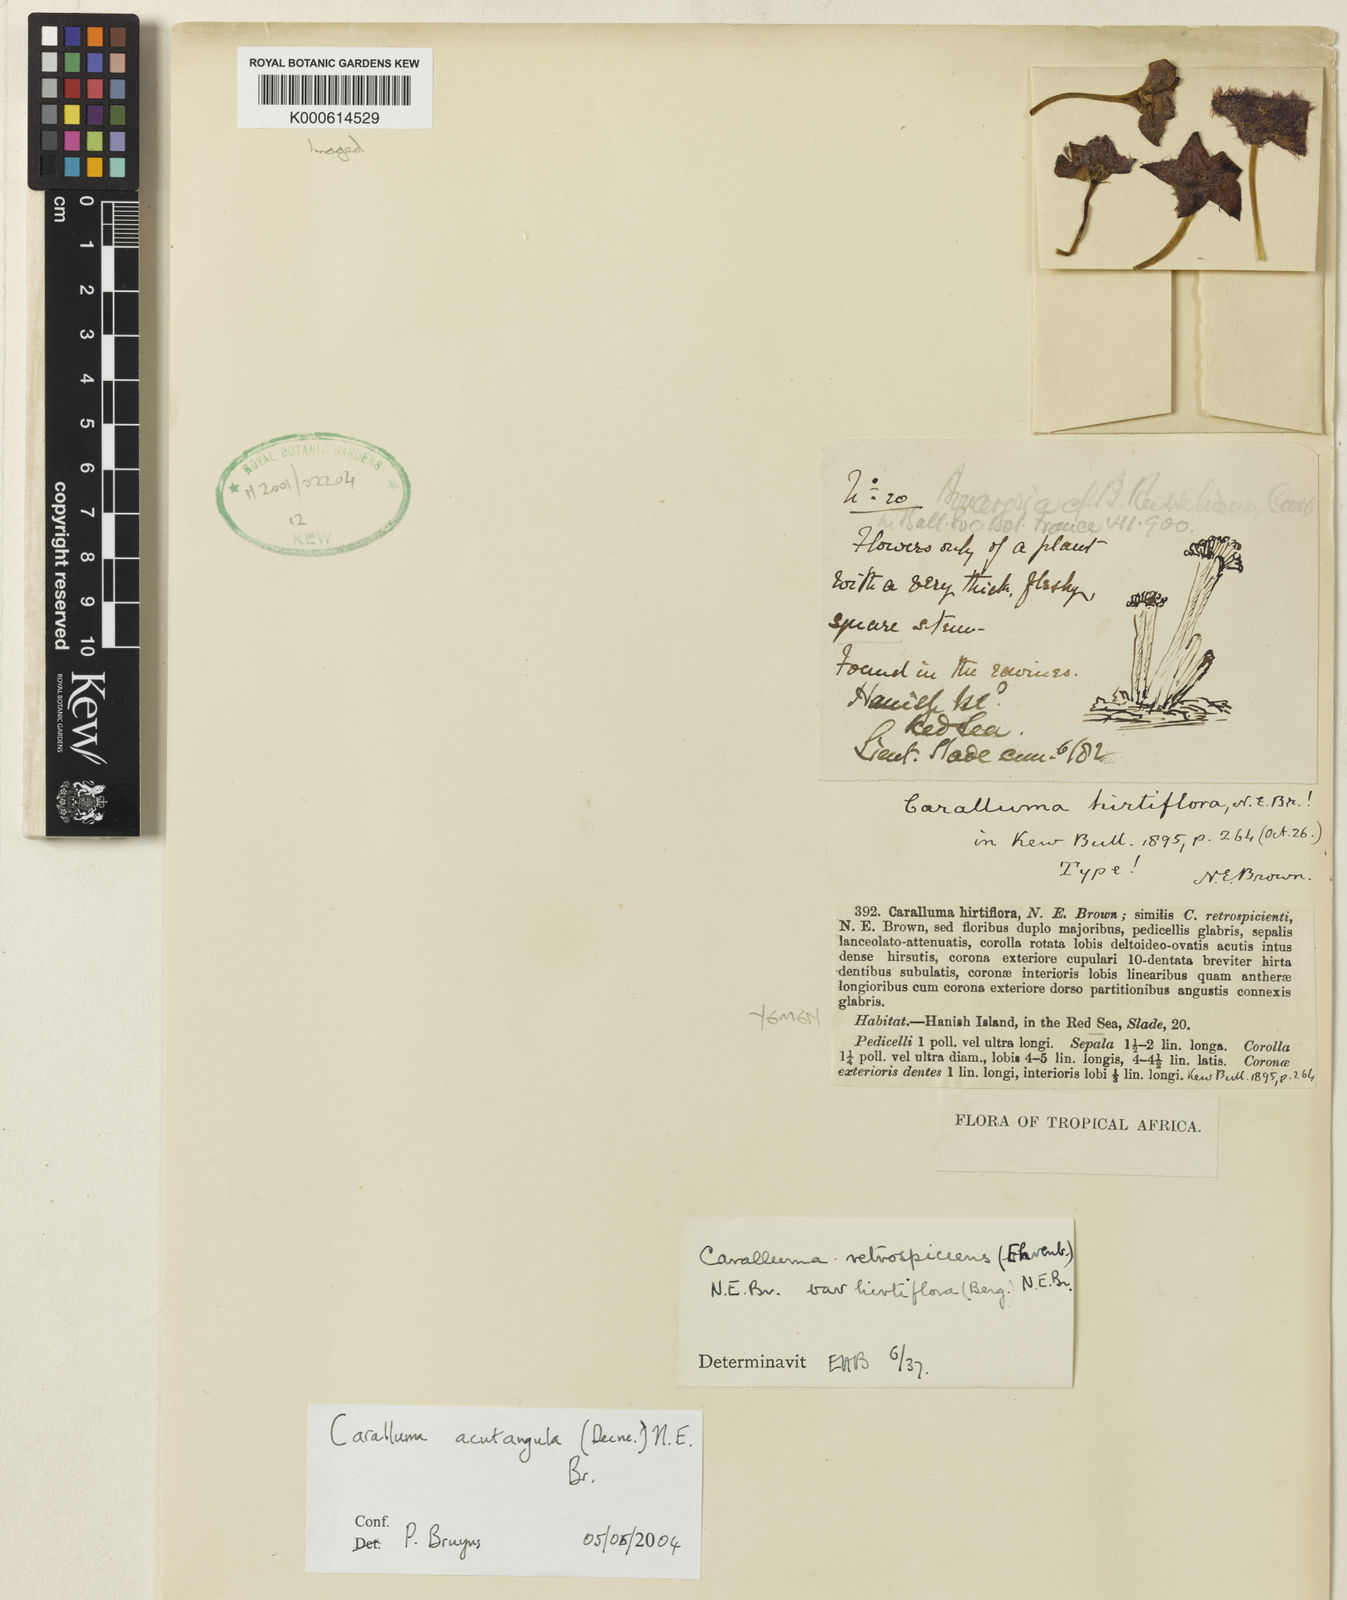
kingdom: Plantae
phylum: Tracheophyta
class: Magnoliopsida
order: Gentianales
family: Apocynaceae
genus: Ceropegia
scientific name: Ceropegia retrospiciens
